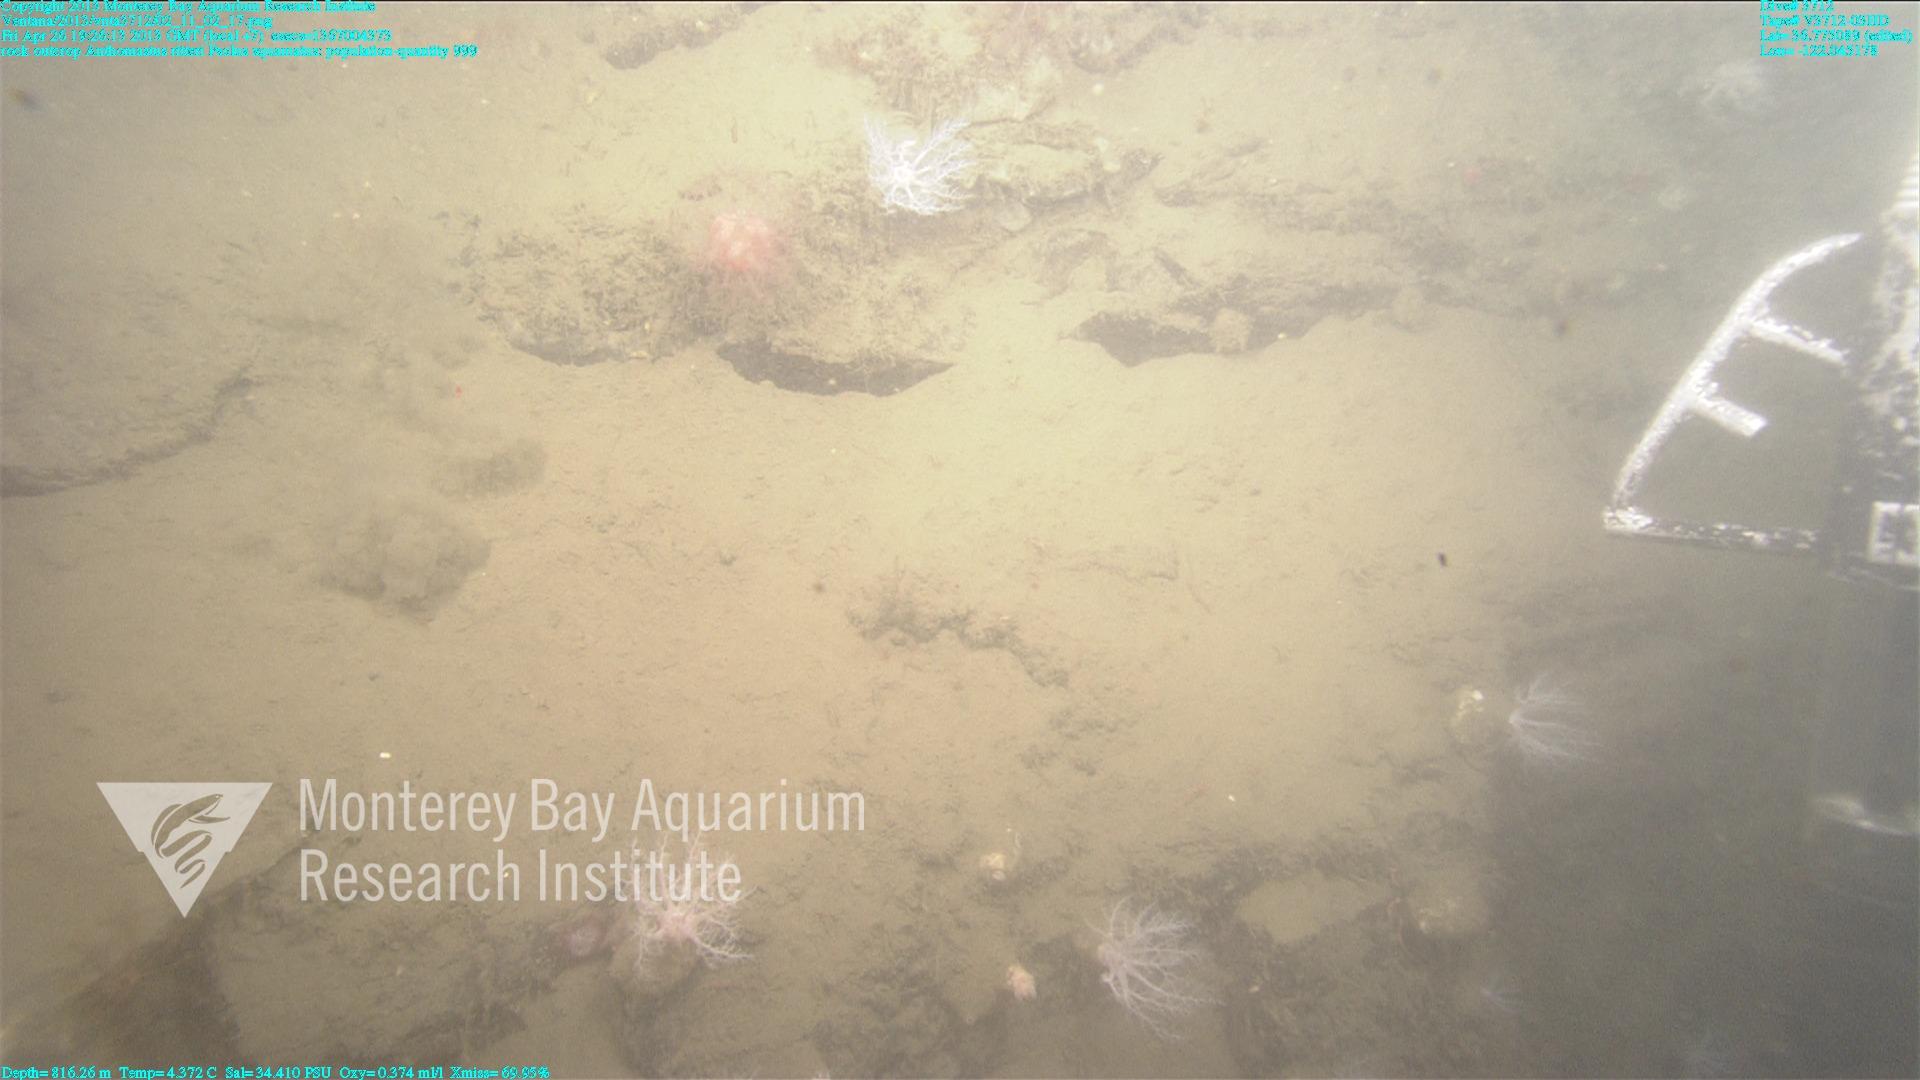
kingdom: Animalia
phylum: Cnidaria
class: Anthozoa
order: Scleralcyonacea
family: Coralliidae
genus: Heteropolypus
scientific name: Heteropolypus ritteri
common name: Ritter's soft coral
